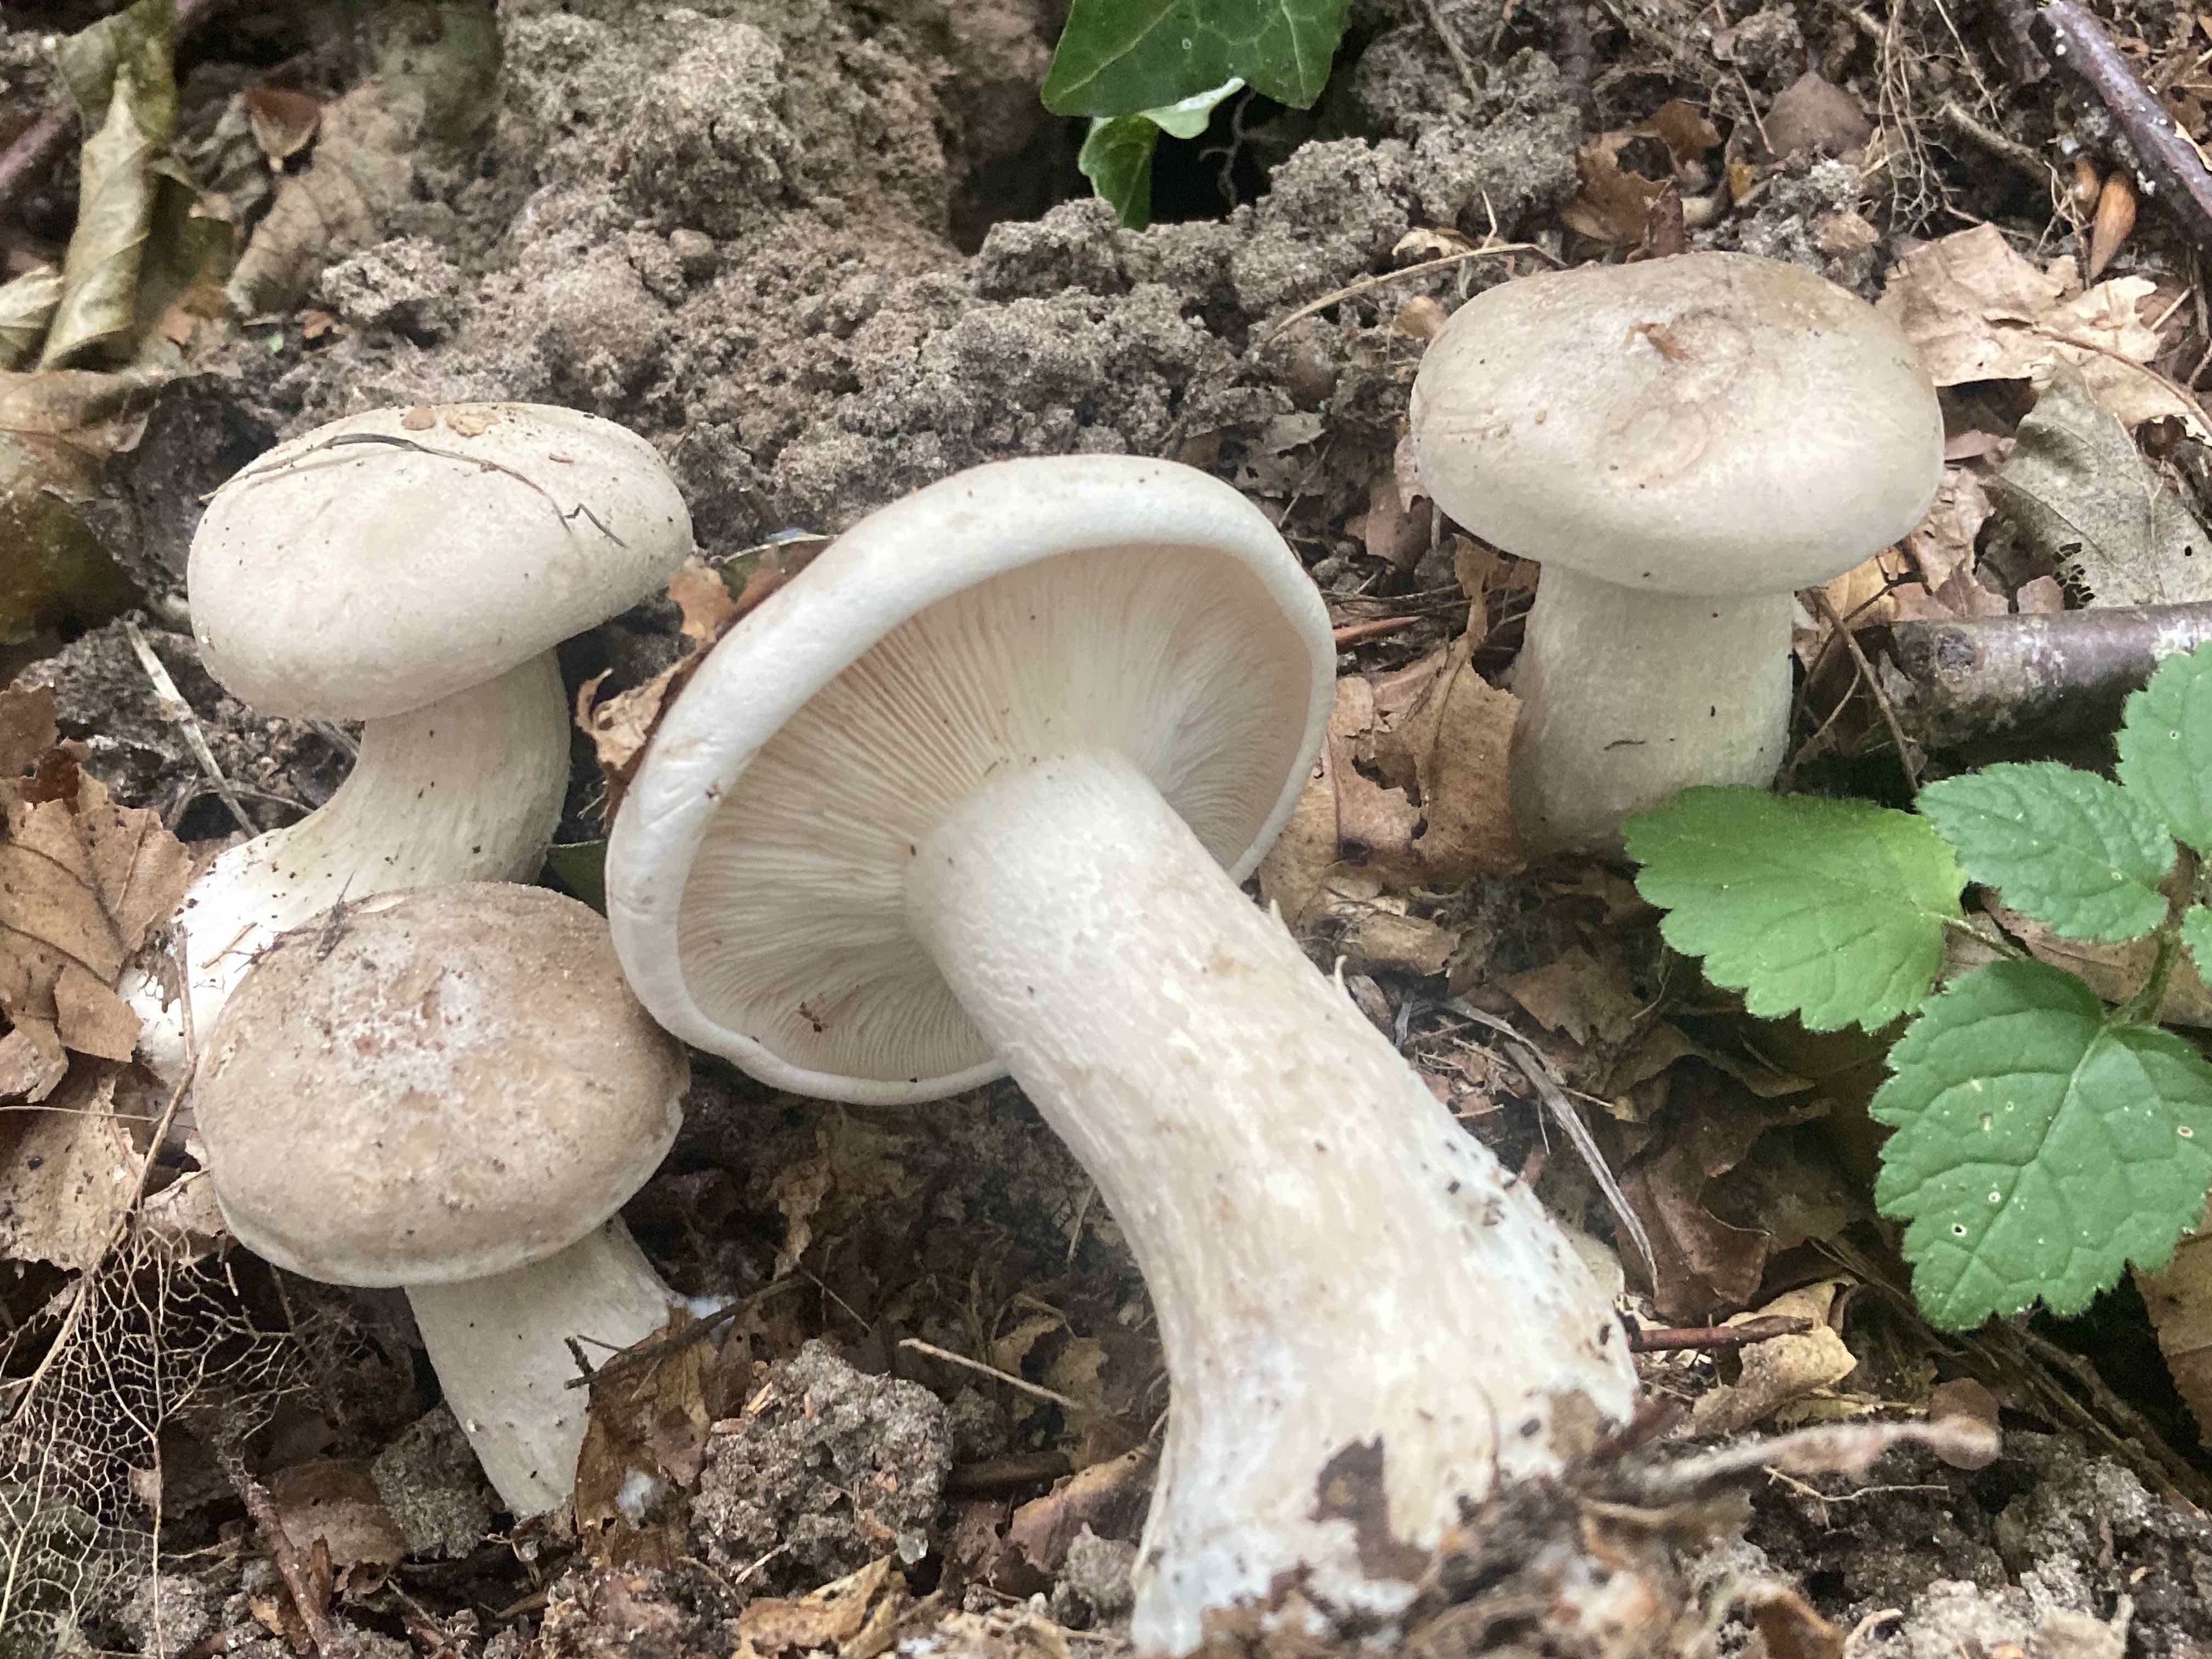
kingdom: Fungi
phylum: Basidiomycota
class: Agaricomycetes
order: Agaricales
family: Tricholomataceae
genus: Clitocybe
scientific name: Clitocybe nebularis
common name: tåge-tragthat
